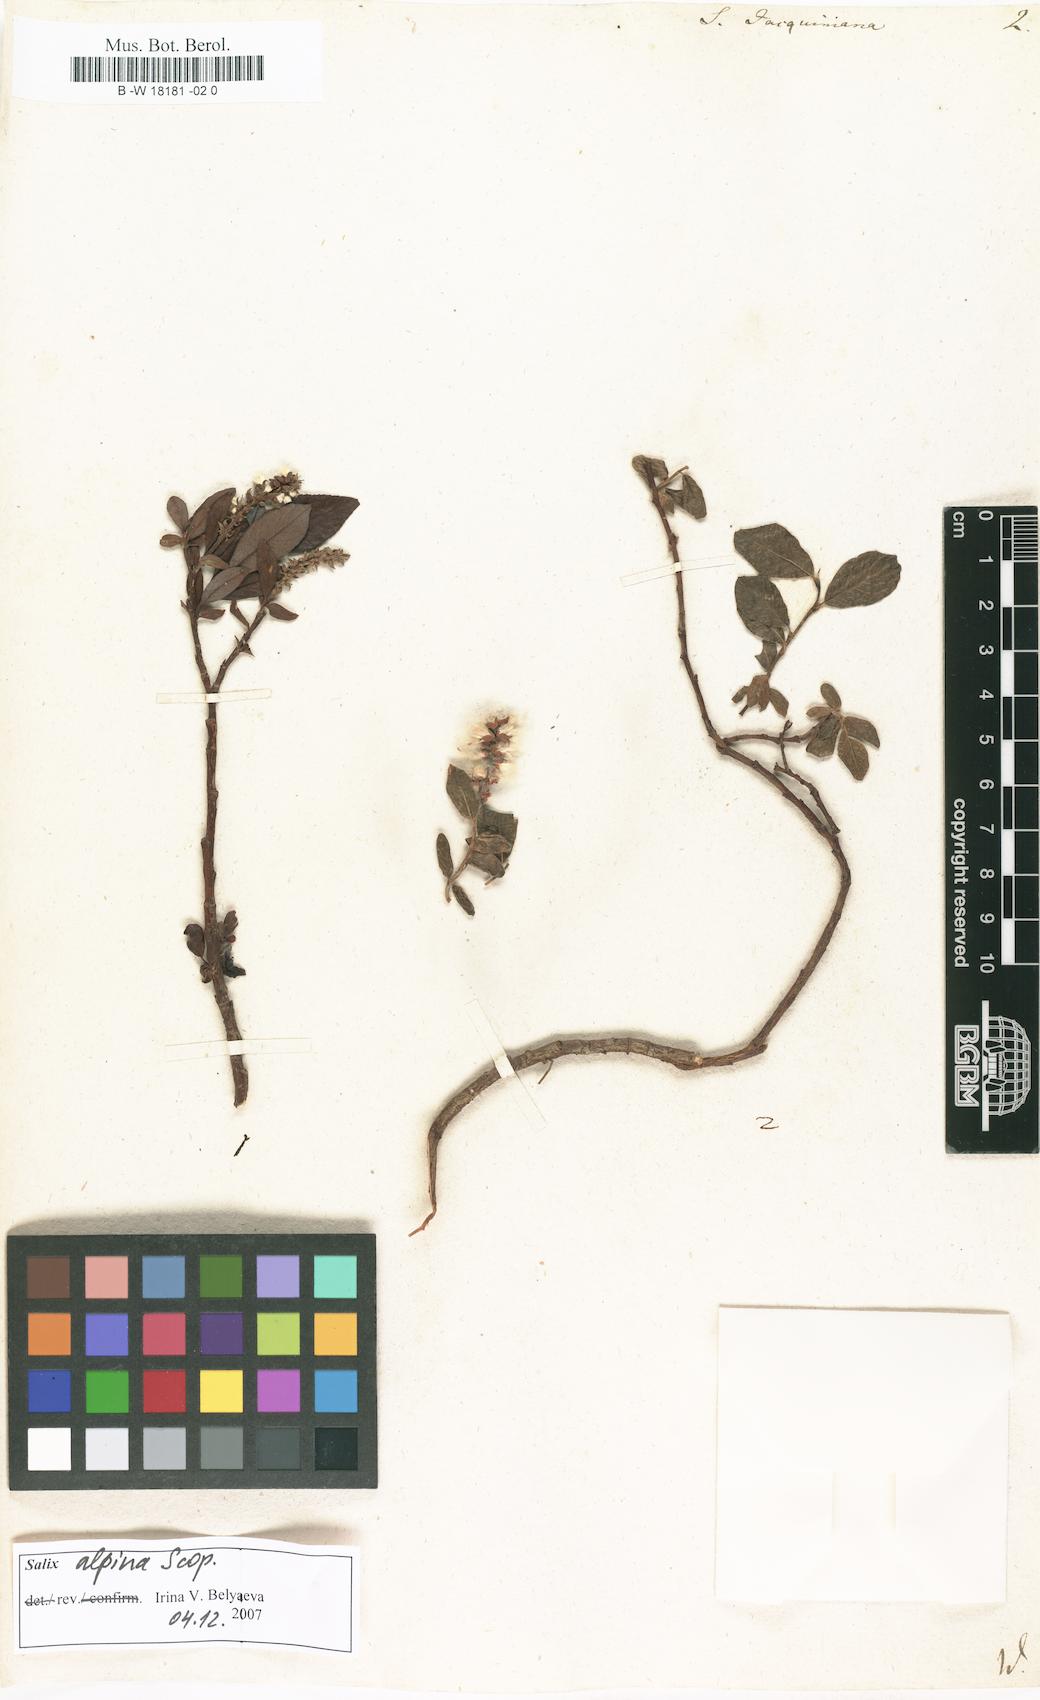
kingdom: Plantae
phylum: Tracheophyta
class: Magnoliopsida
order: Malpighiales
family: Salicaceae
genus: Salix
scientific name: Salix alpina
